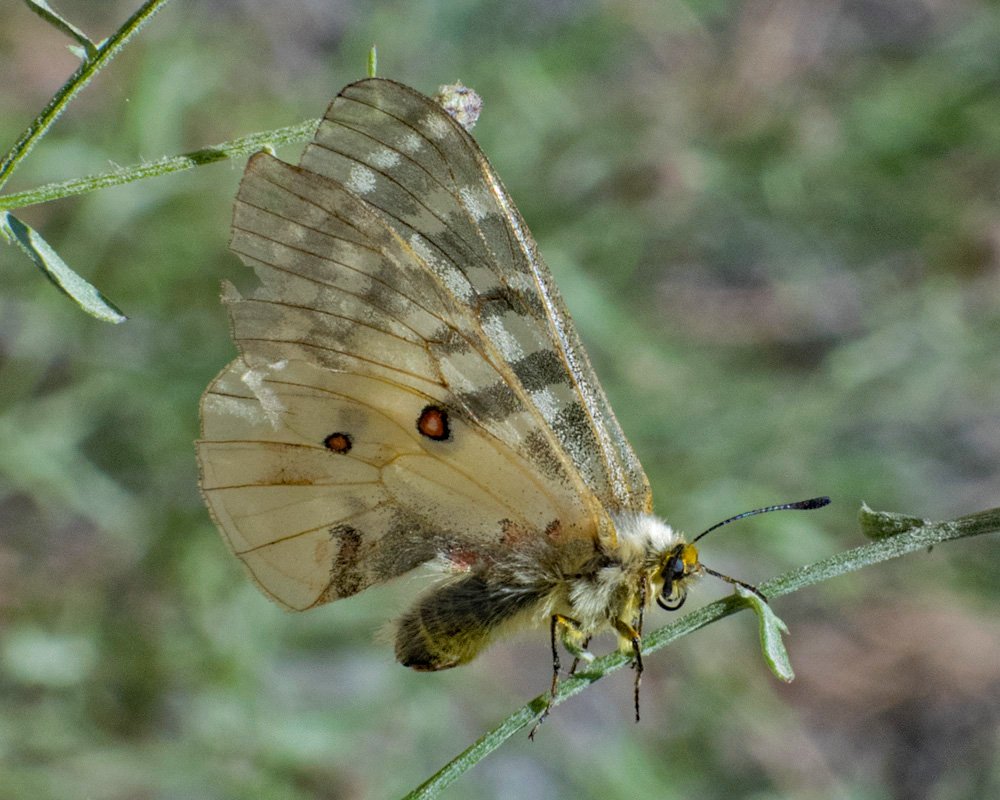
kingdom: Animalia
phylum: Arthropoda
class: Insecta
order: Lepidoptera
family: Papilionidae
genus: Parnassius
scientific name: Parnassius smintheus
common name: Rocky Mountain Parnassian
